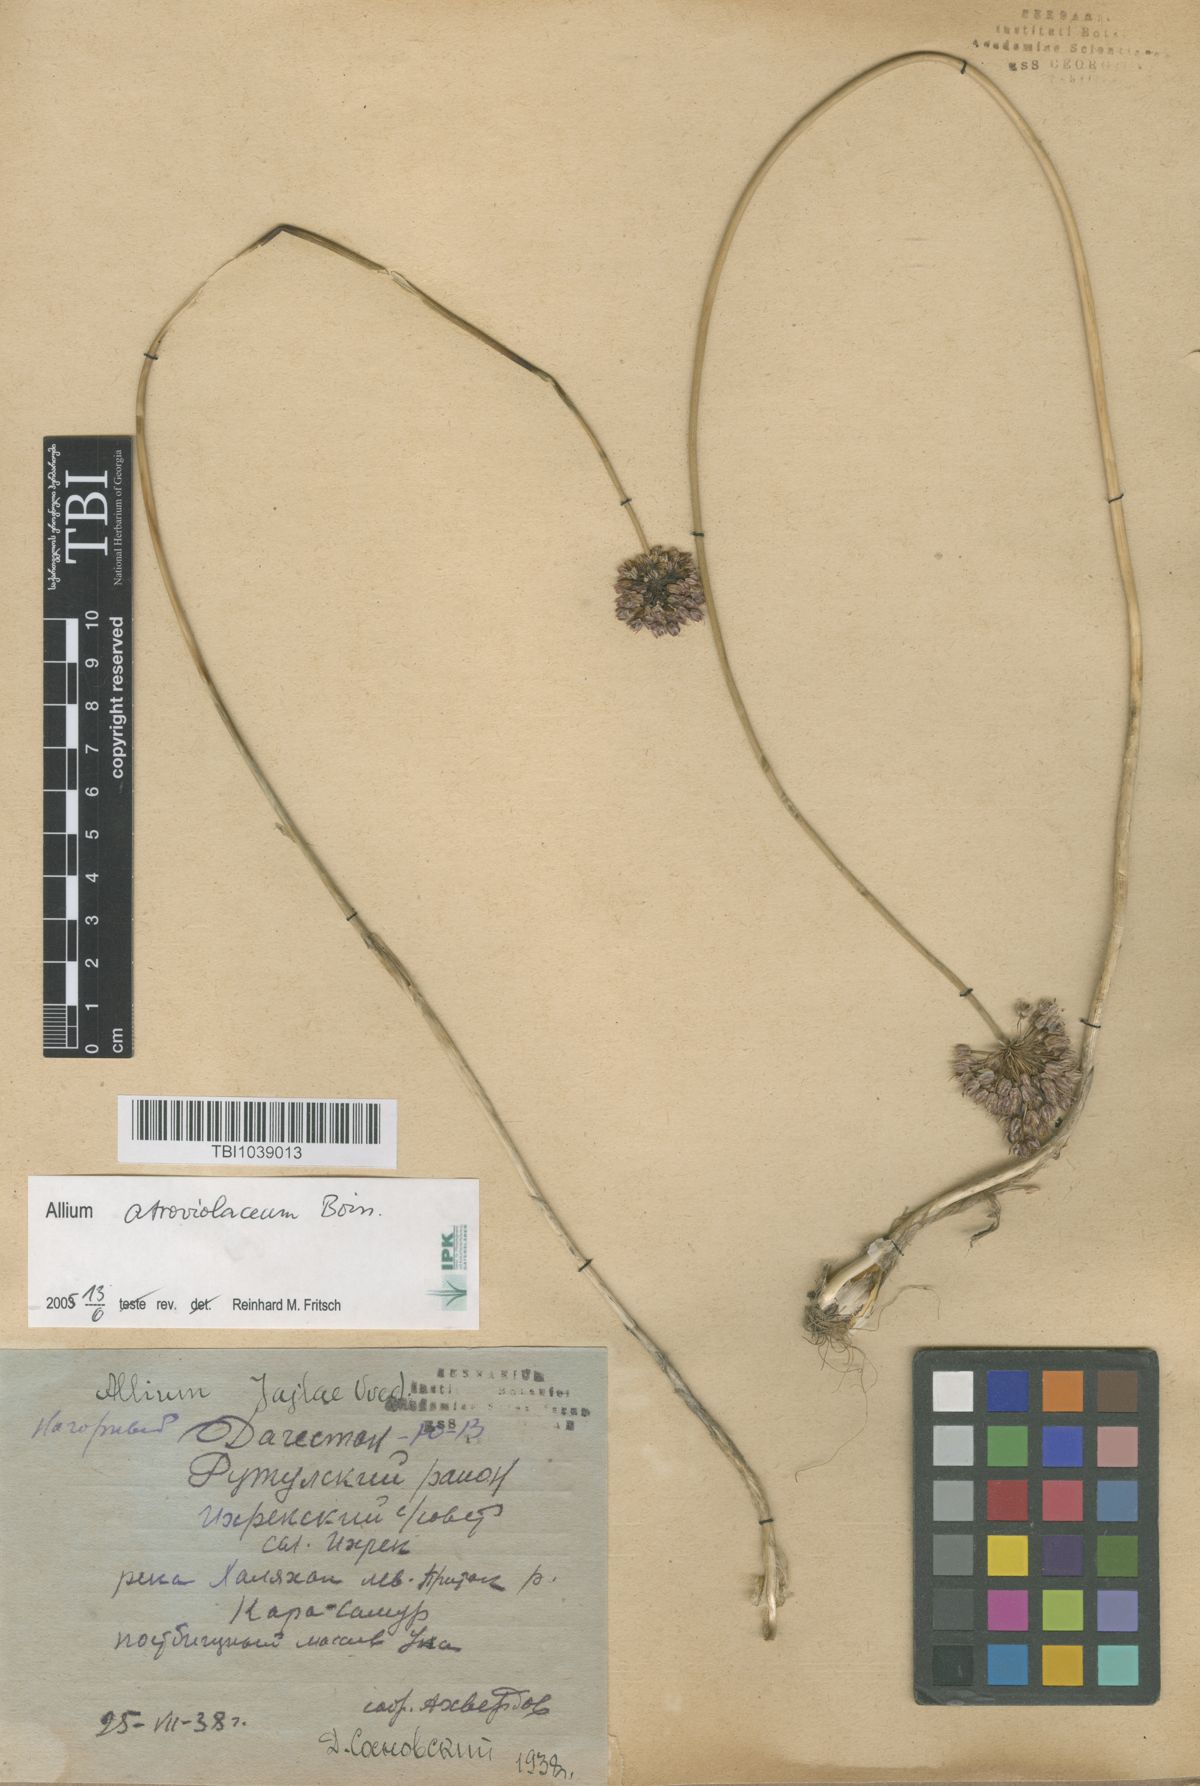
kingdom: Plantae
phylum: Tracheophyta
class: Liliopsida
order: Asparagales
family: Amaryllidaceae
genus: Allium
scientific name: Allium rotundum
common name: Sand leek
